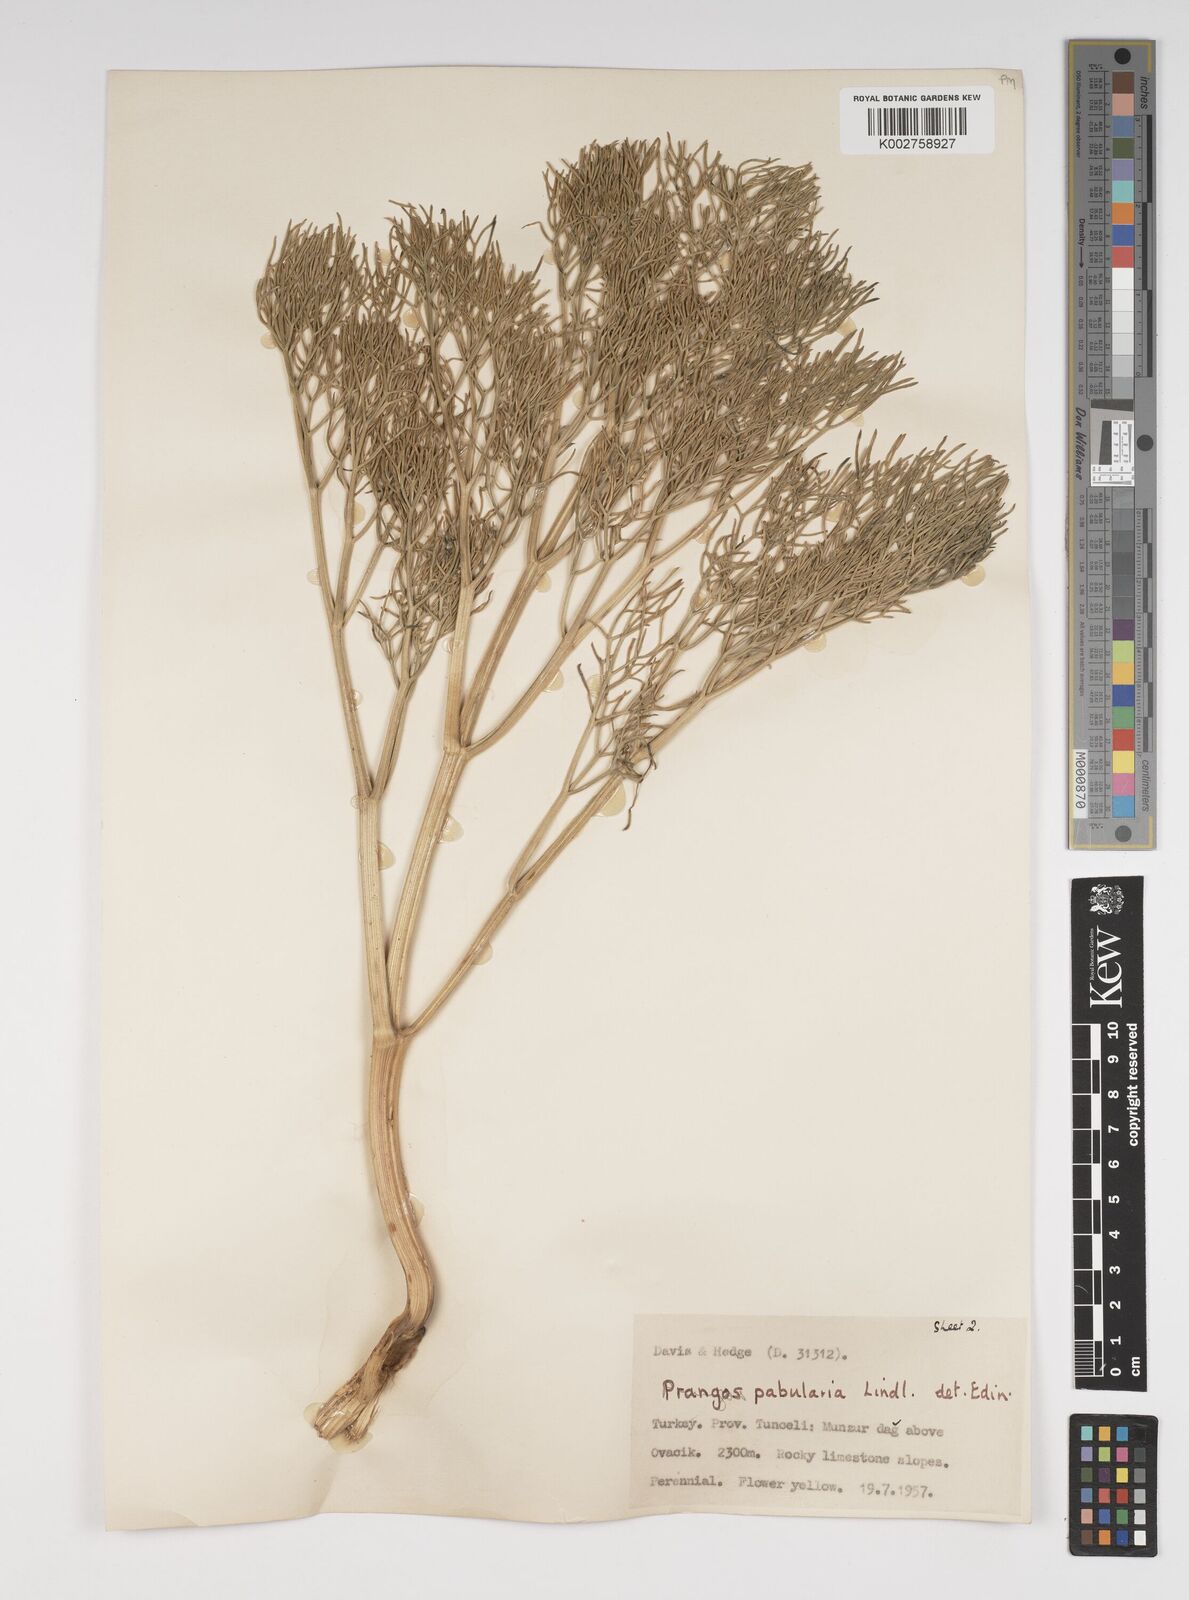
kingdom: Plantae
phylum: Tracheophyta
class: Magnoliopsida
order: Apiales
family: Apiaceae
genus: Prangos
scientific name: Prangos pabularia
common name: Yugan
